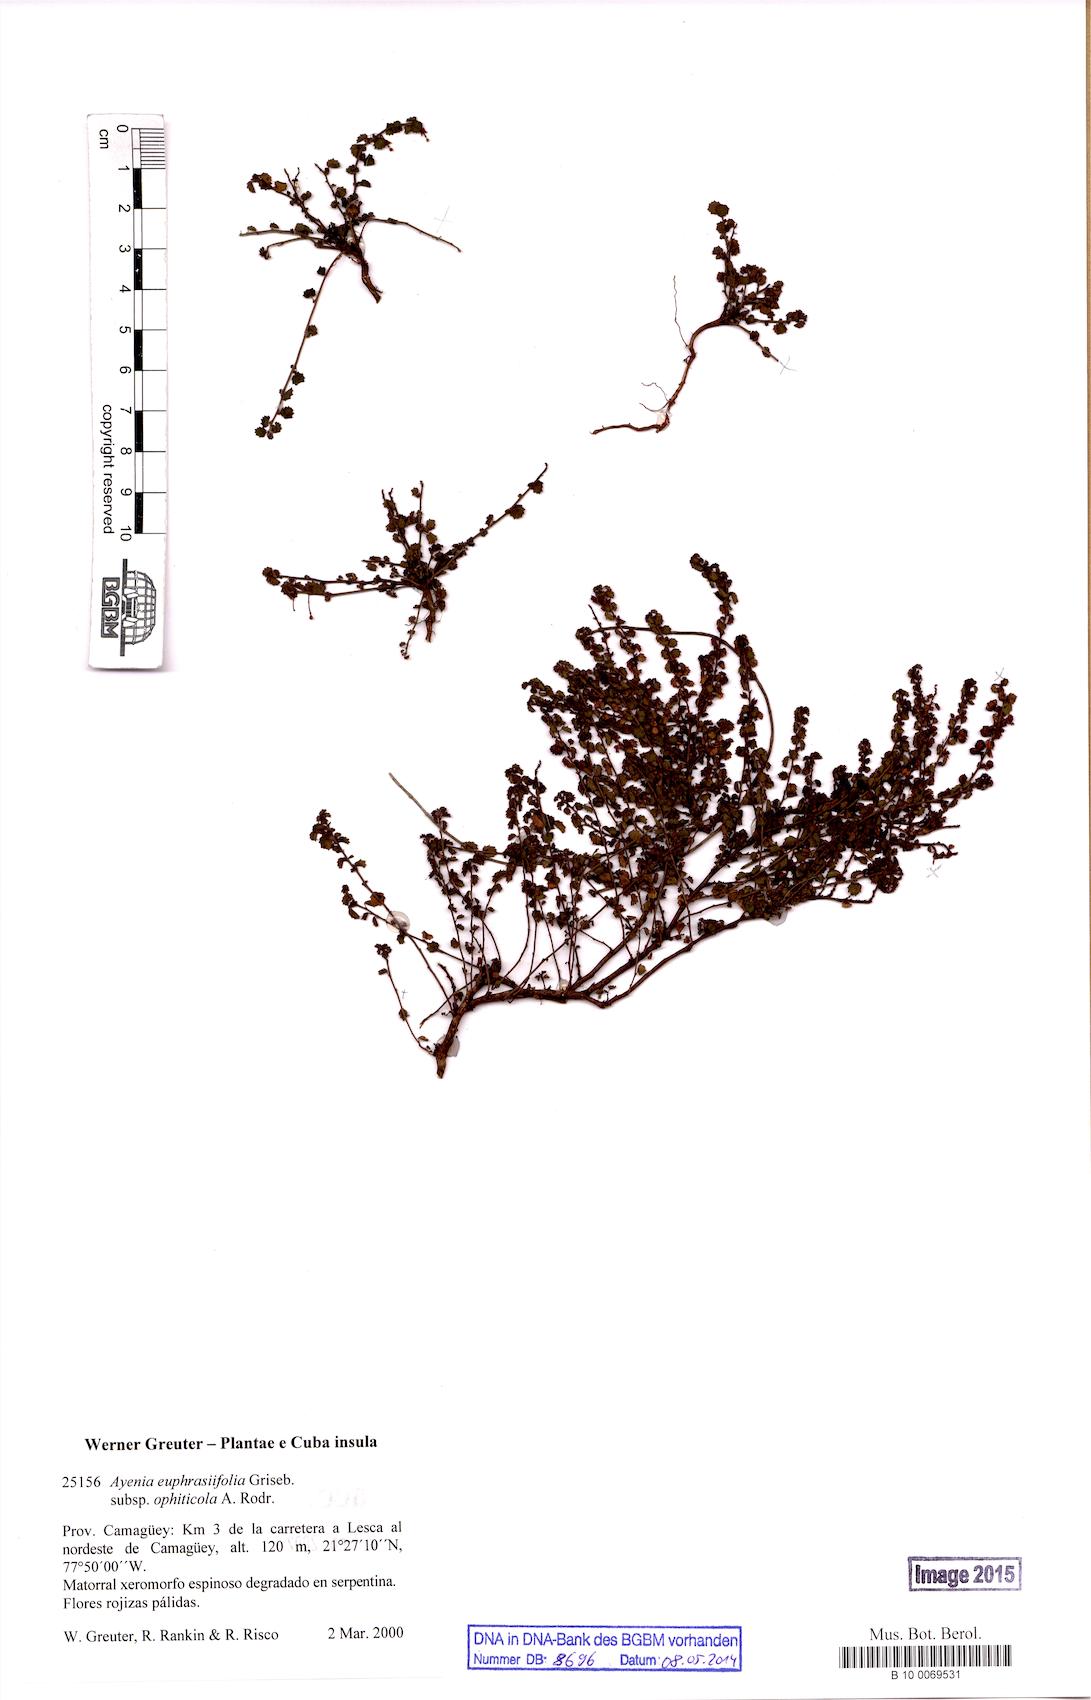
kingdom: Plantae
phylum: Tracheophyta
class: Magnoliopsida
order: Malvales
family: Malvaceae
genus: Ayenia
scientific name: Ayenia euphrasiifolia
